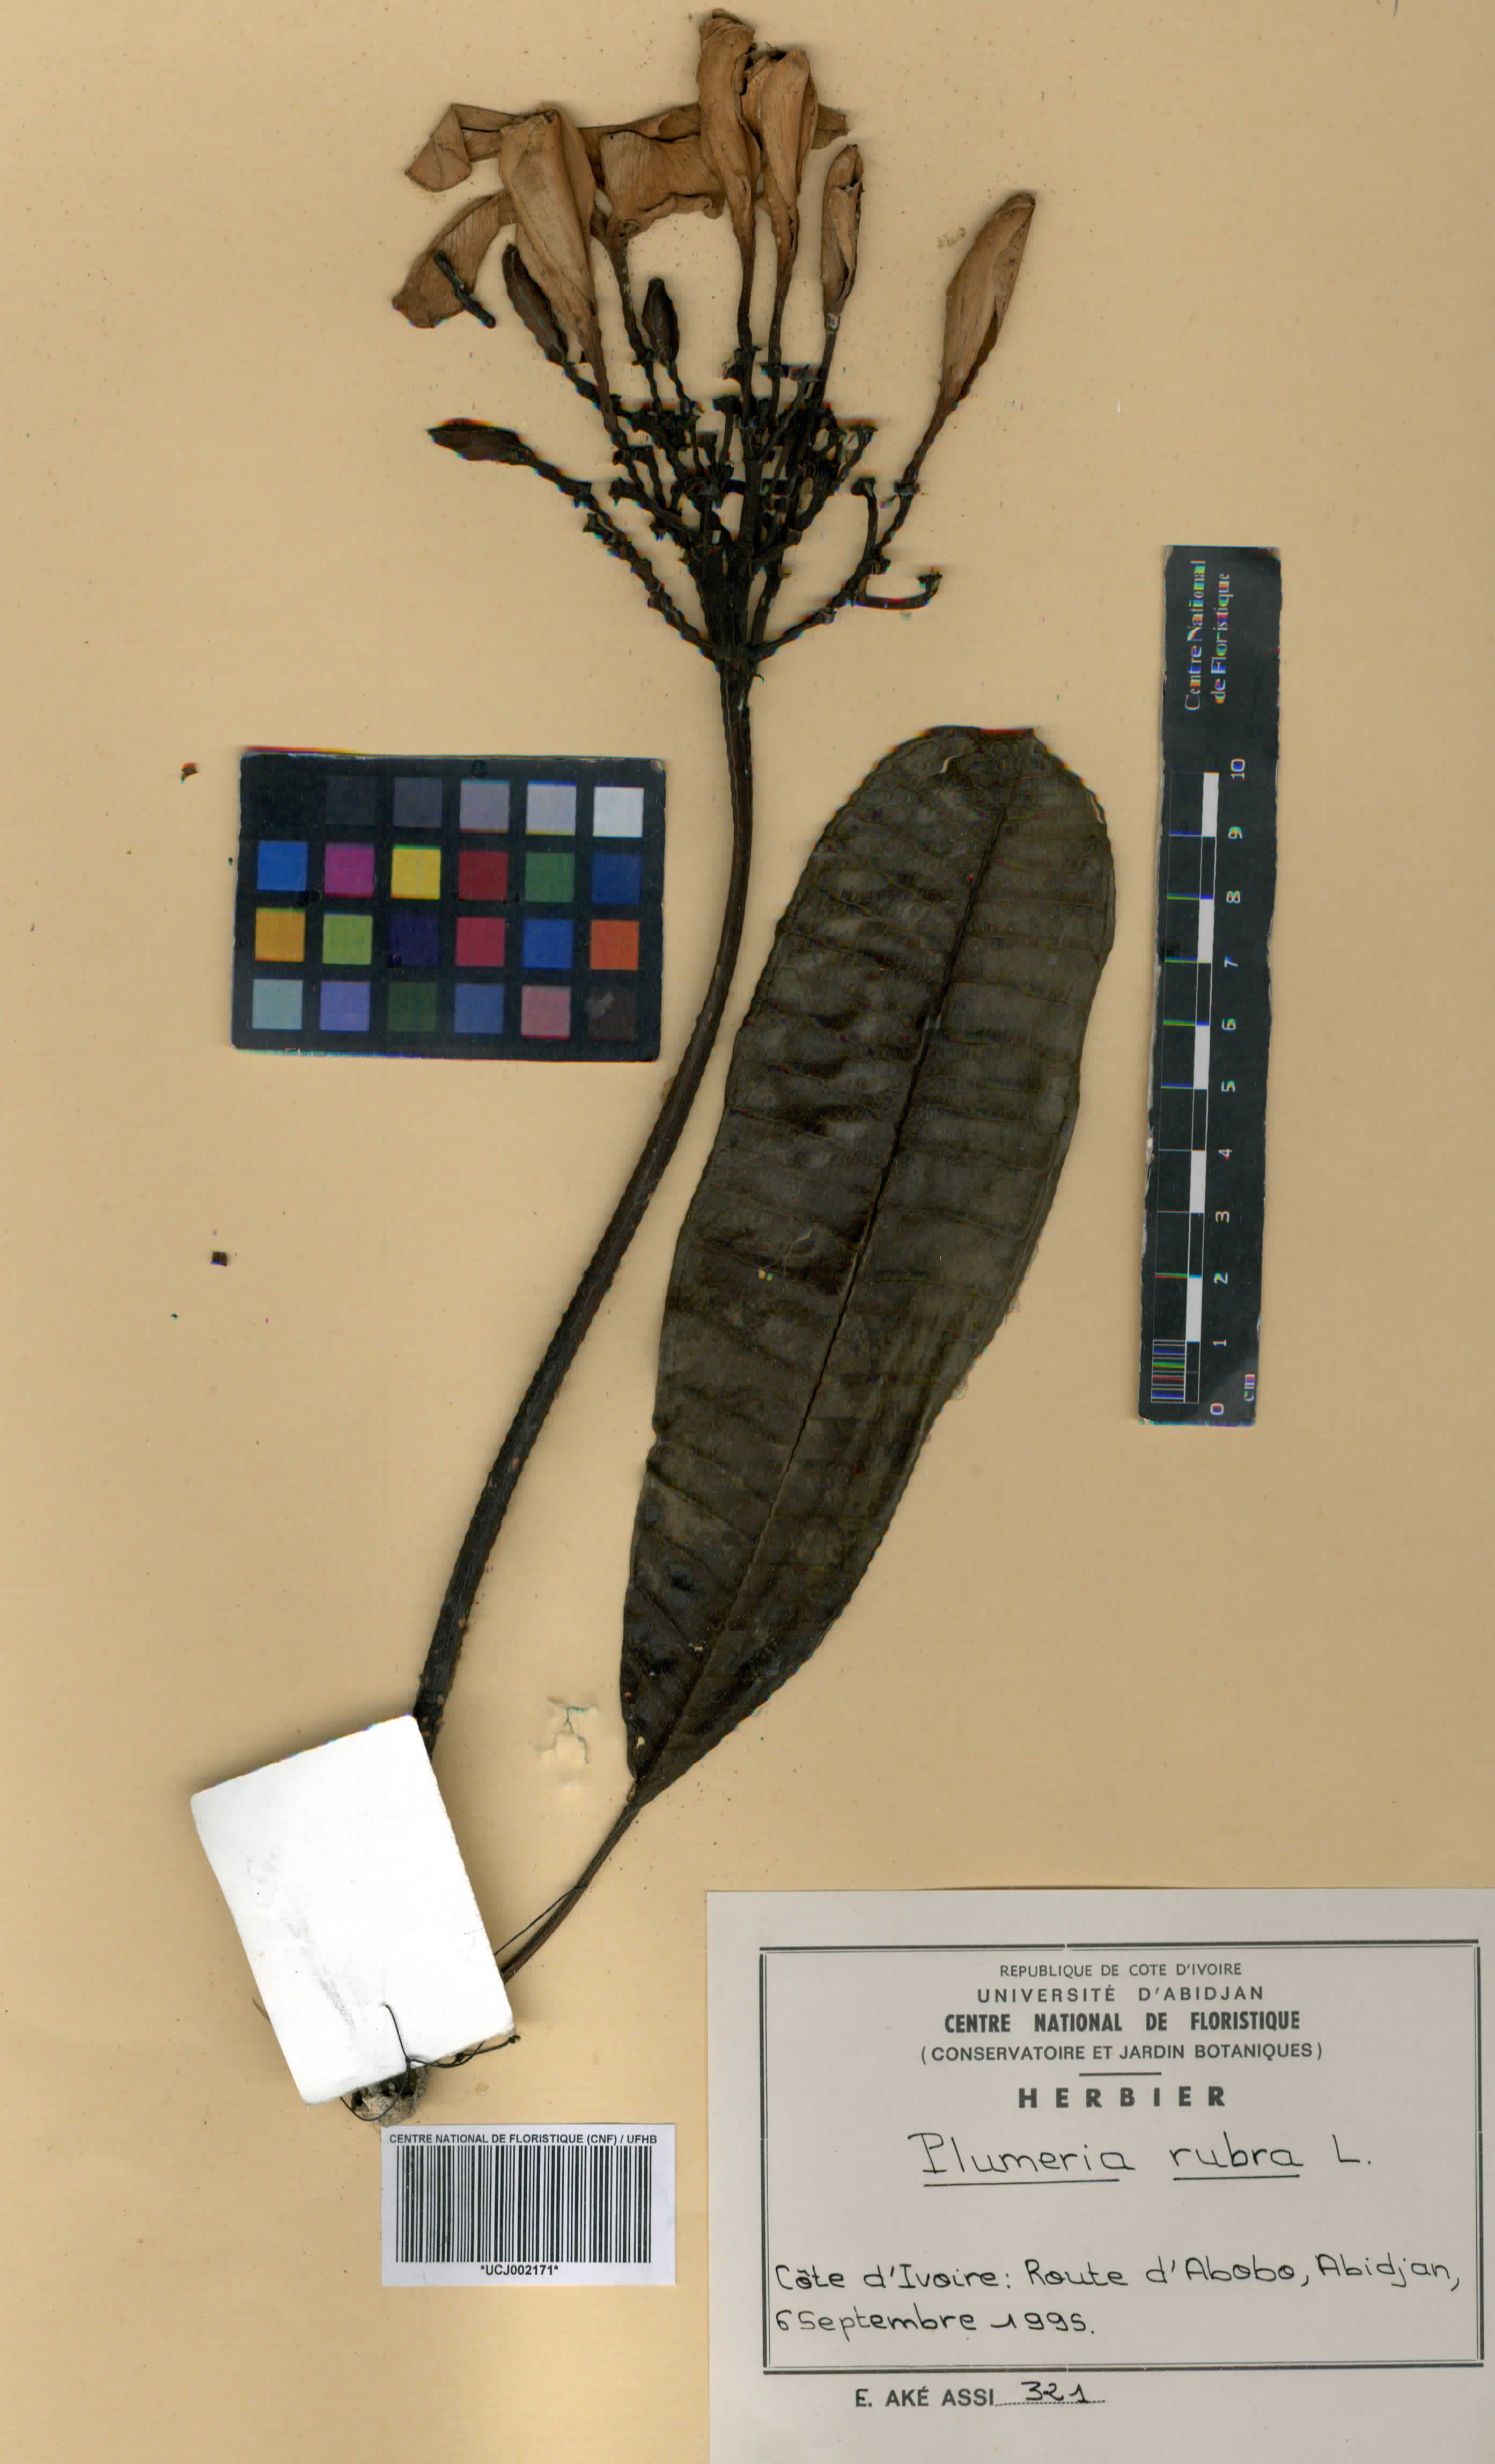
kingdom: Plantae
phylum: Tracheophyta
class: Magnoliopsida
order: Gentianales
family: Apocynaceae
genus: Plumeria
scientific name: Plumeria rubra
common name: Pagoda-tree
